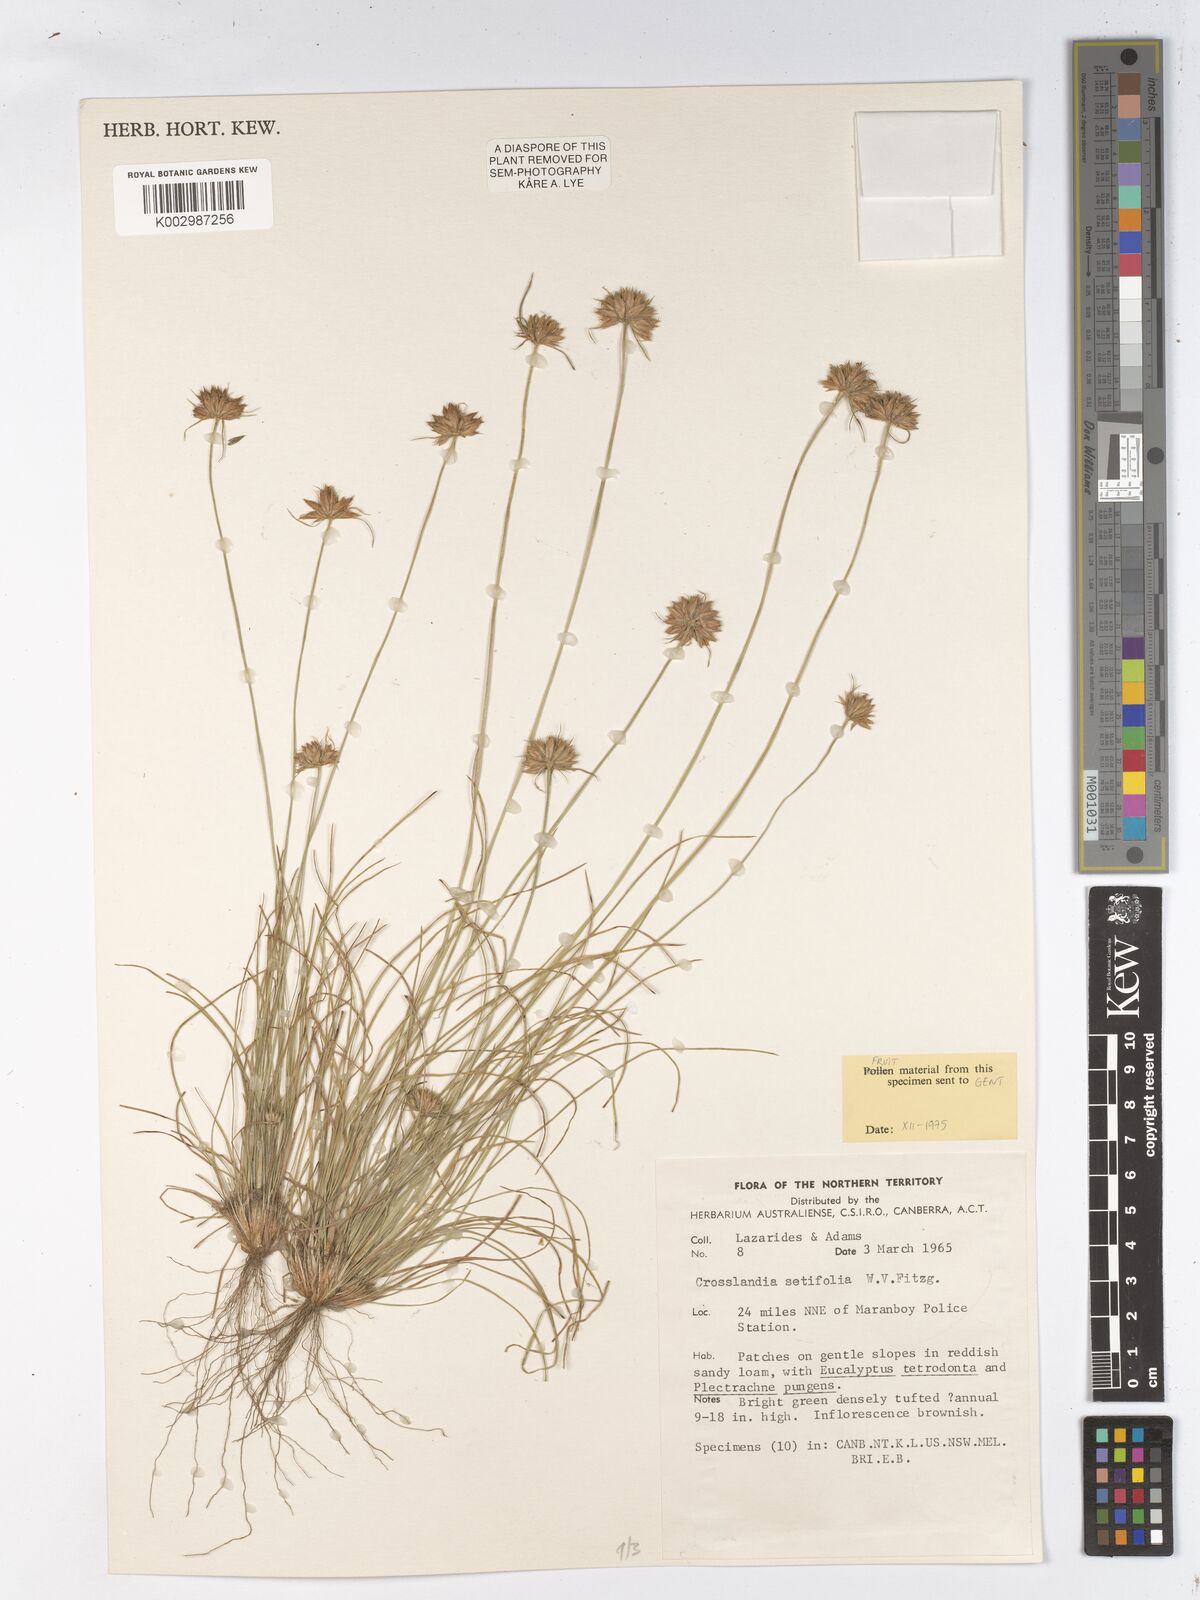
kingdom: Plantae
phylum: Tracheophyta
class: Liliopsida
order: Poales
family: Cyperaceae
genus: Fimbristylis
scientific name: Fimbristylis crosslandii
